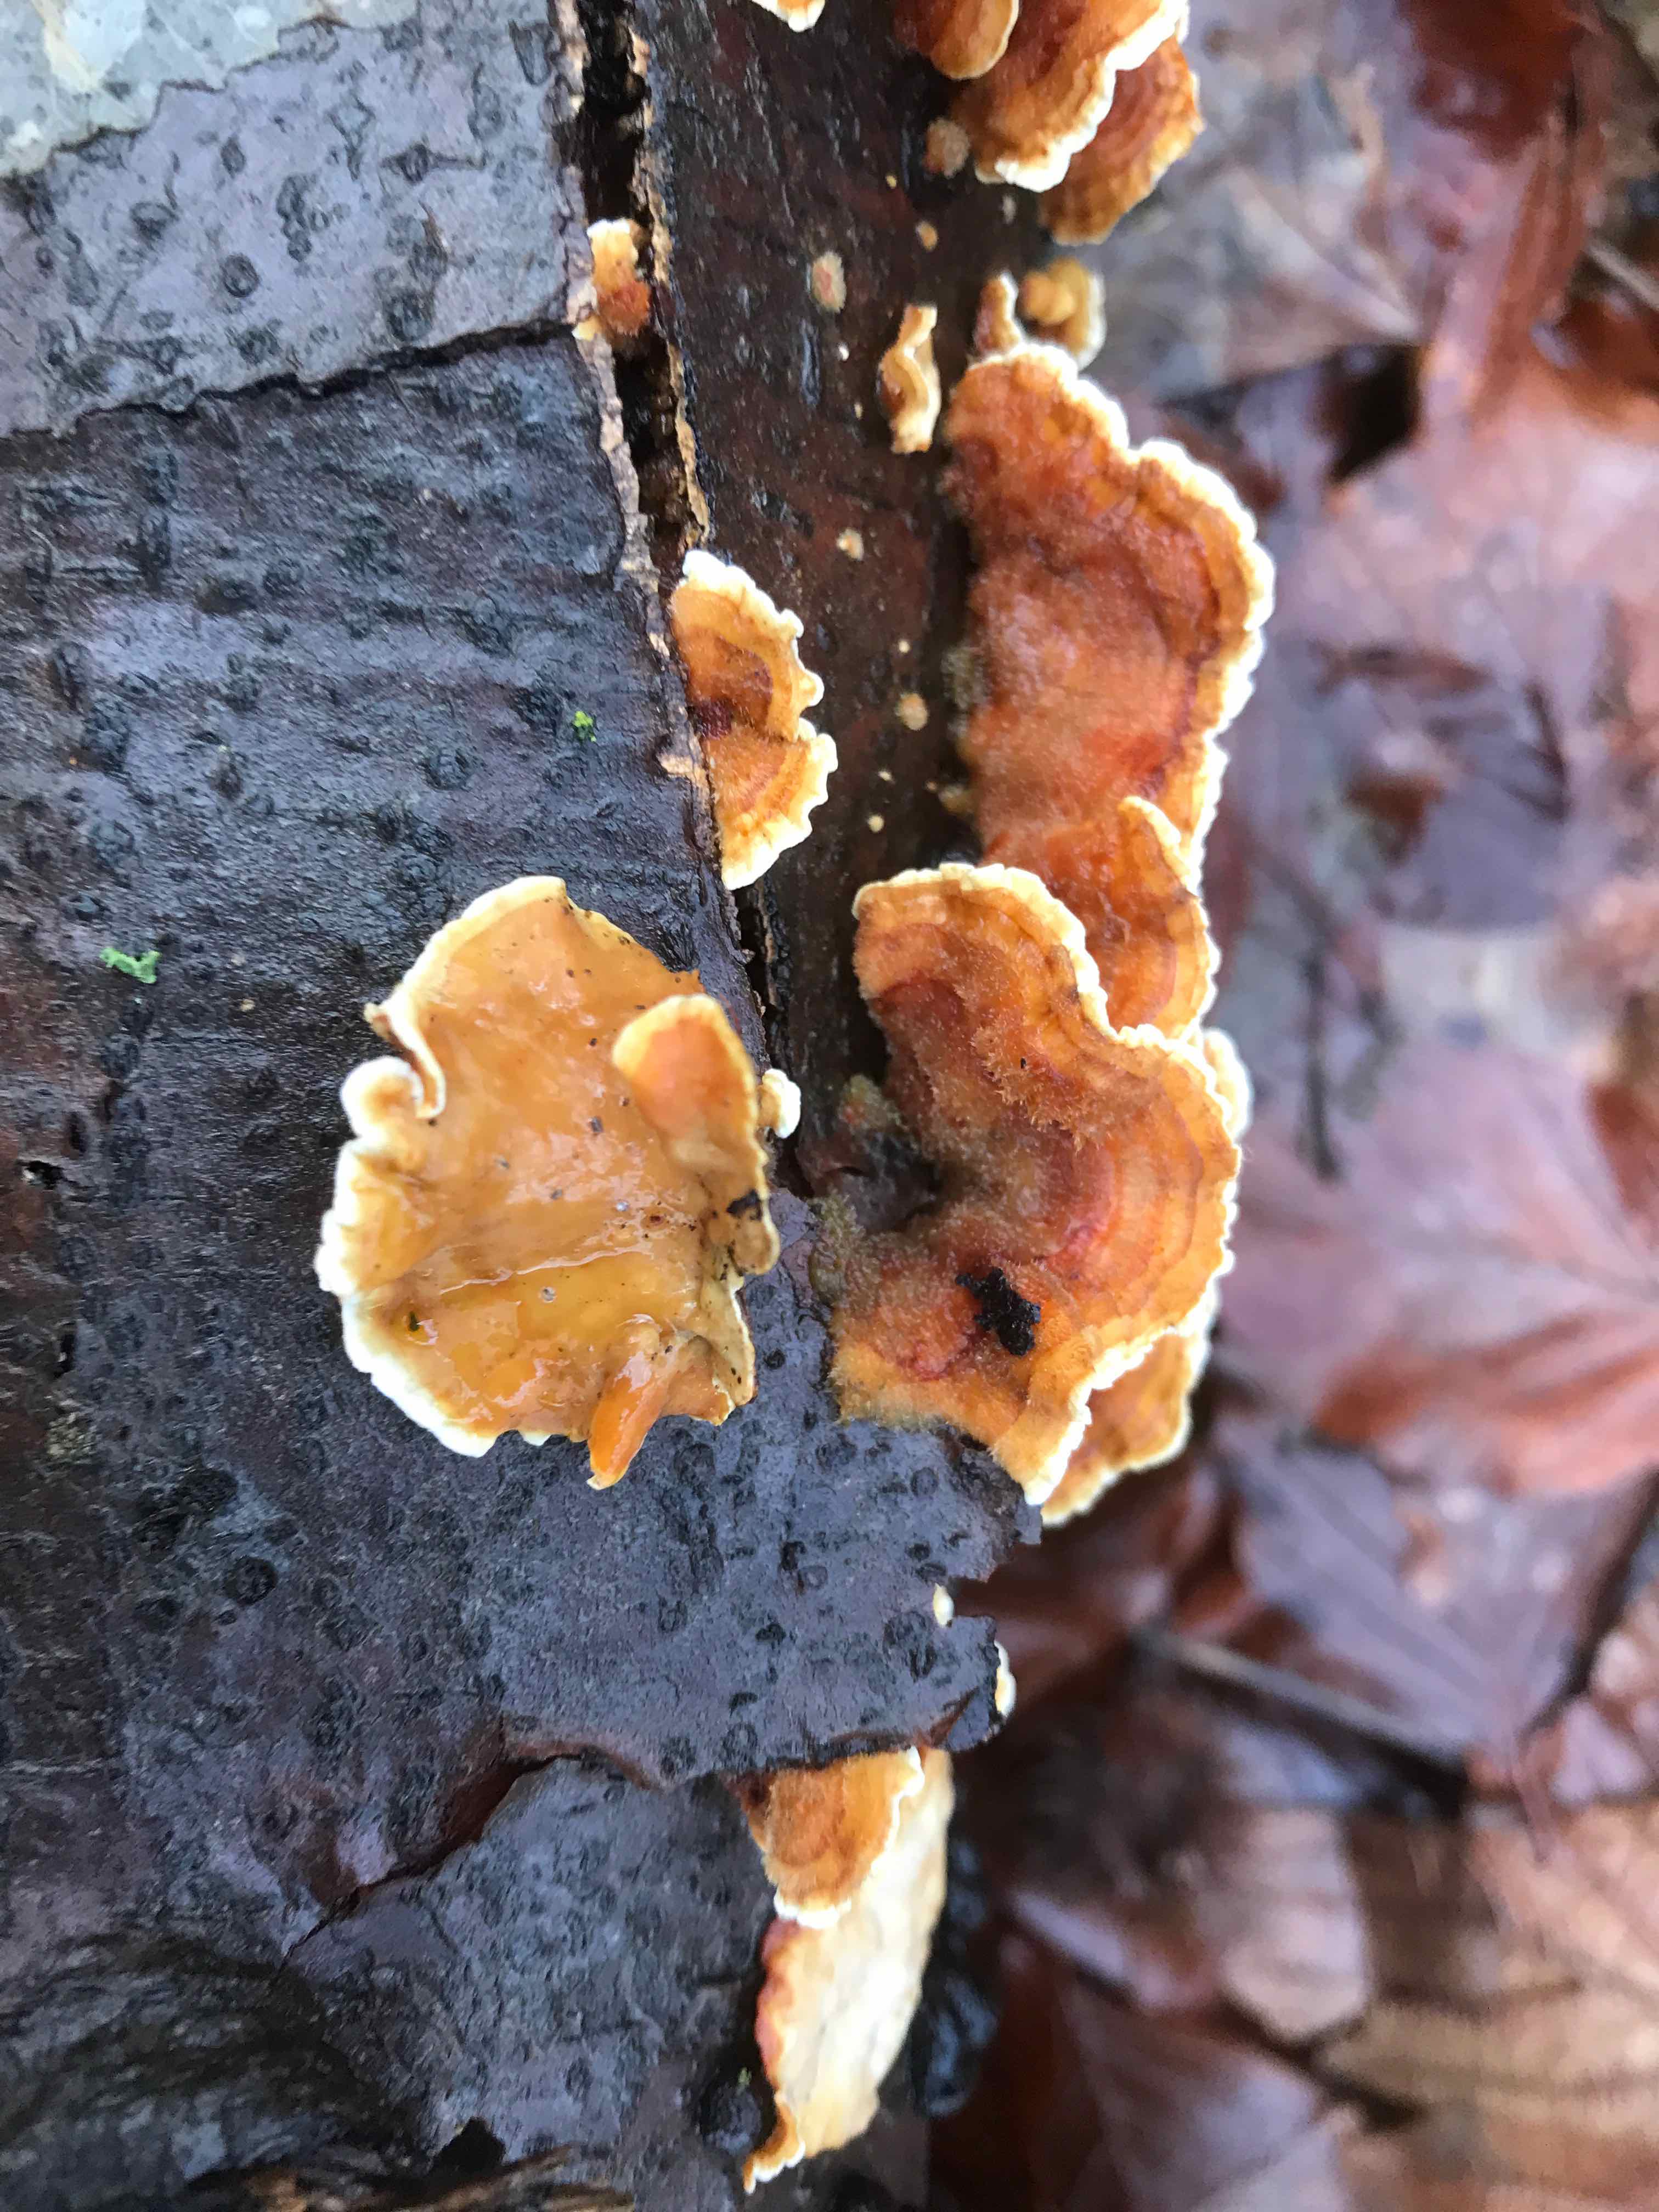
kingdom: Fungi
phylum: Basidiomycota
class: Agaricomycetes
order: Russulales
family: Stereaceae
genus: Stereum
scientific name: Stereum subtomentosum
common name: smuk lædersvamp
